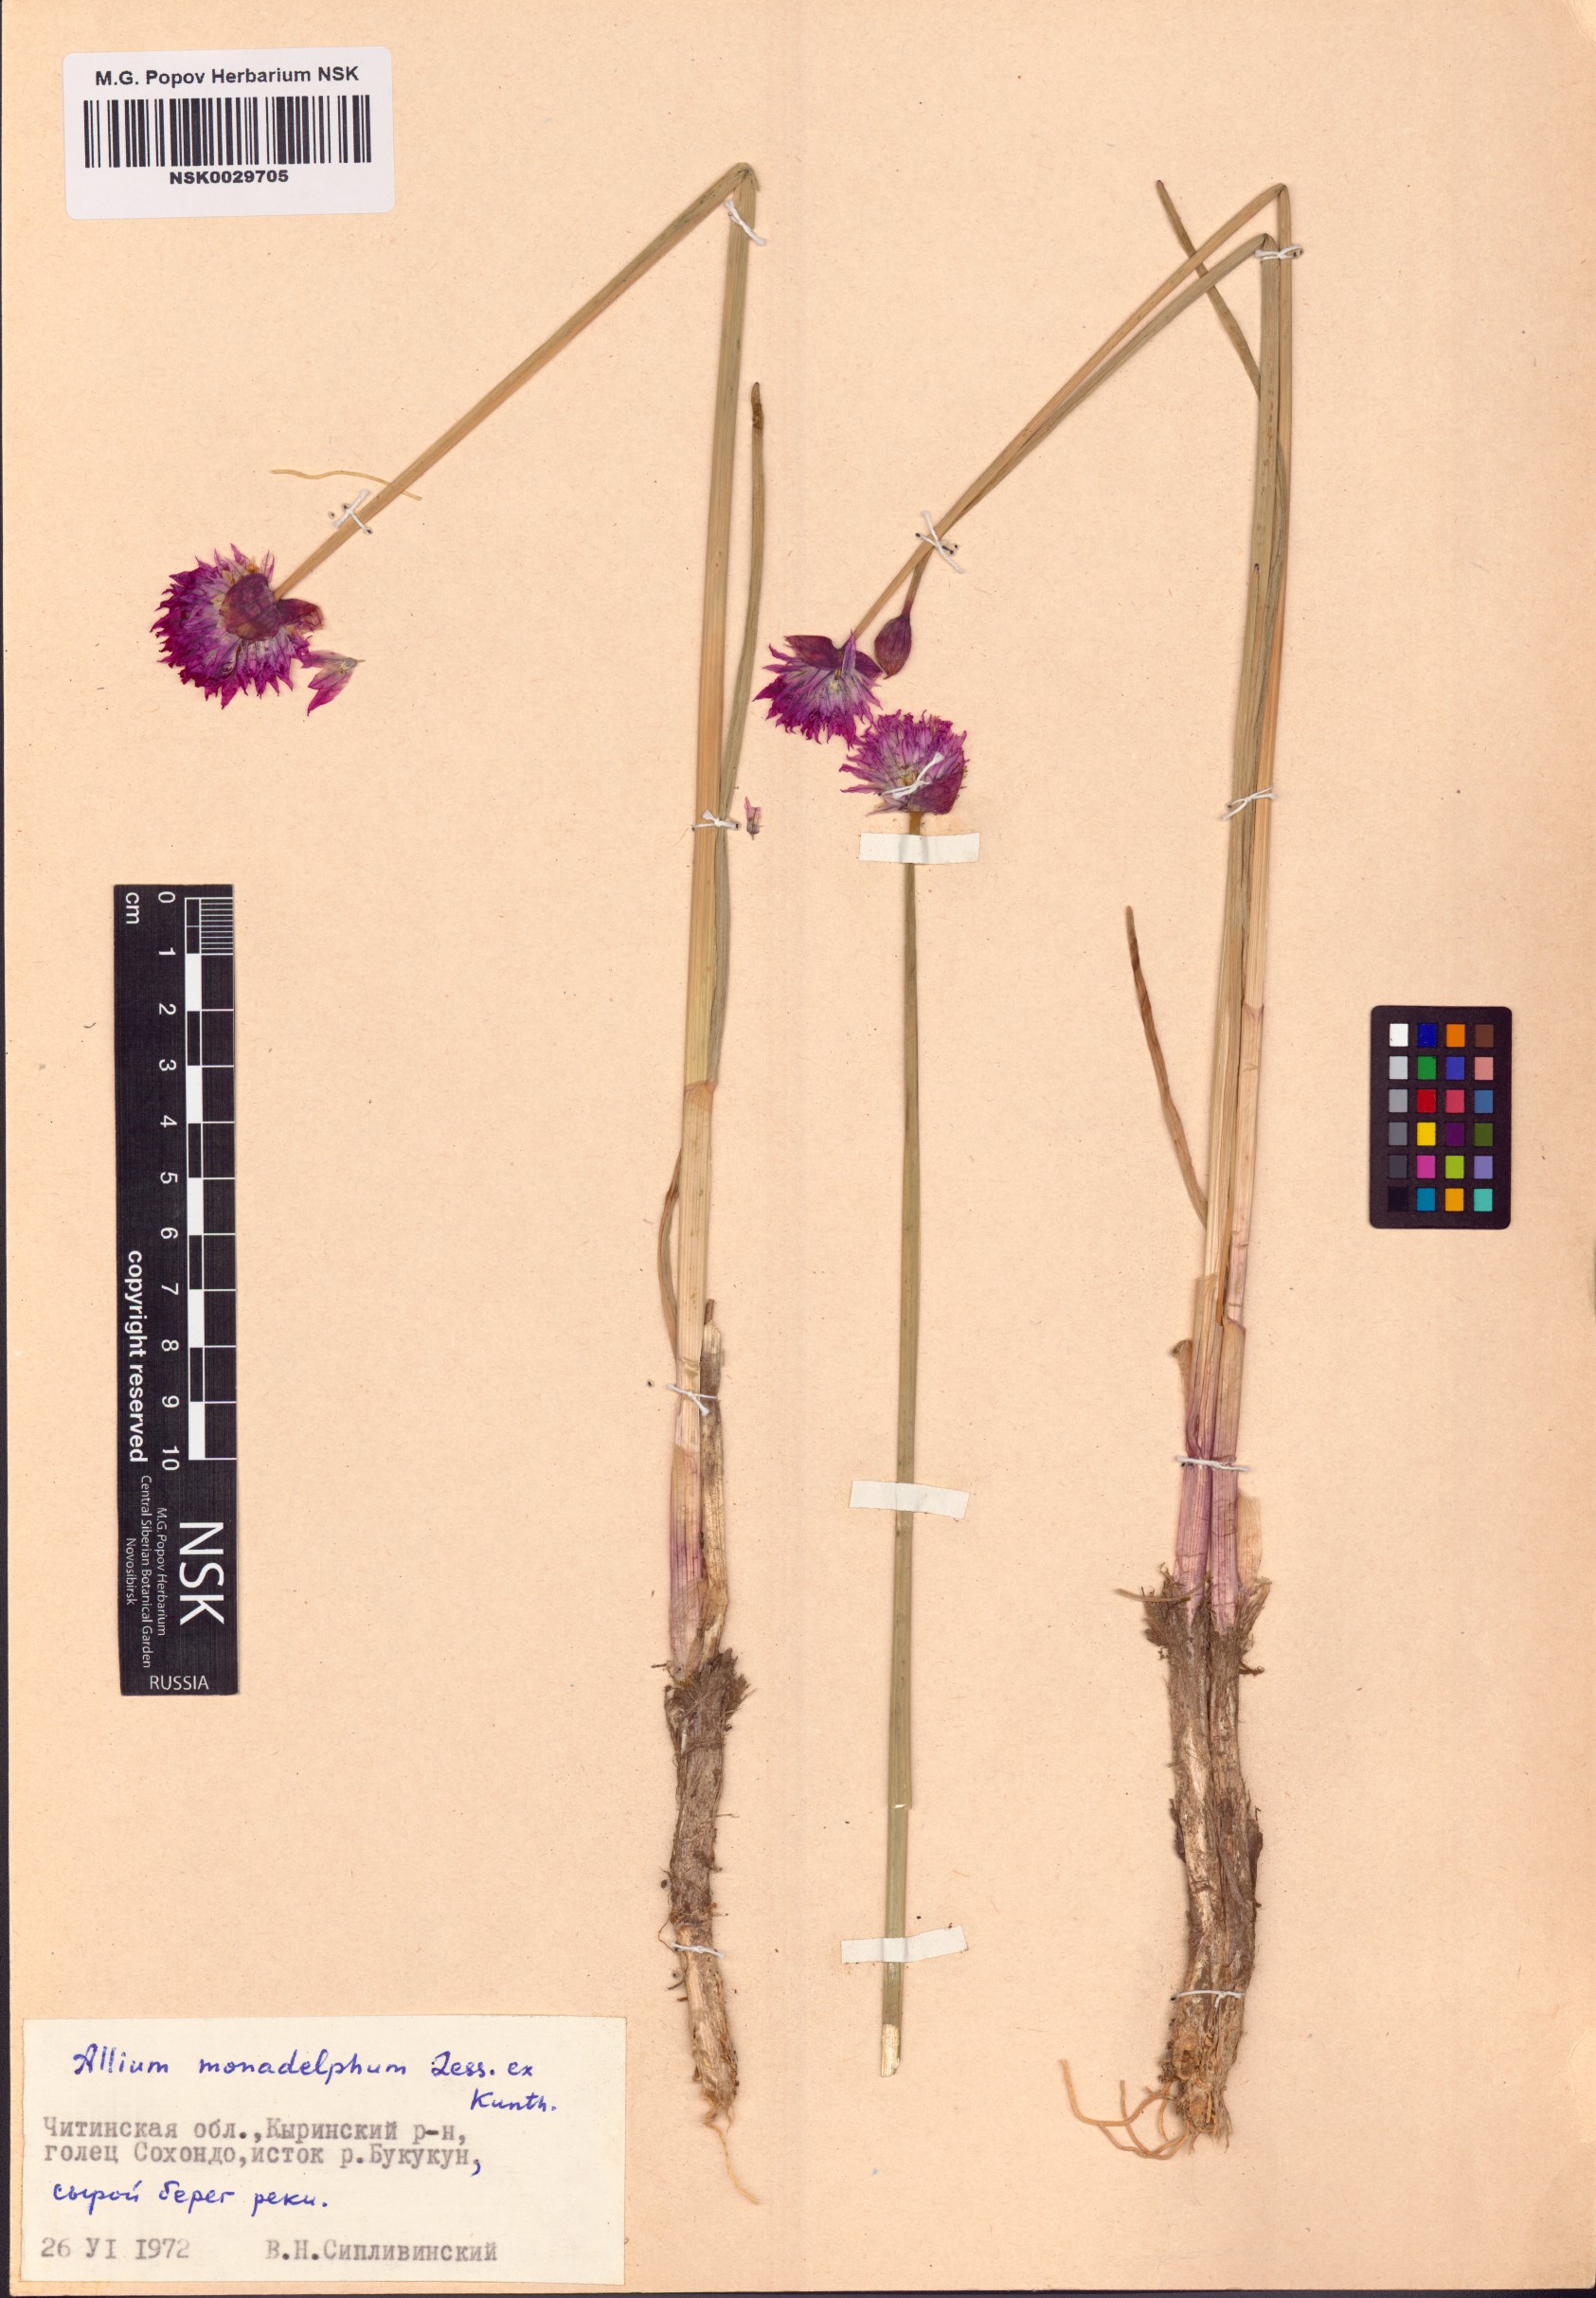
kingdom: Plantae
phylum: Tracheophyta
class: Liliopsida
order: Asparagales
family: Amaryllidaceae
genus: Allium
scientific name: Allium atrosanguineum
